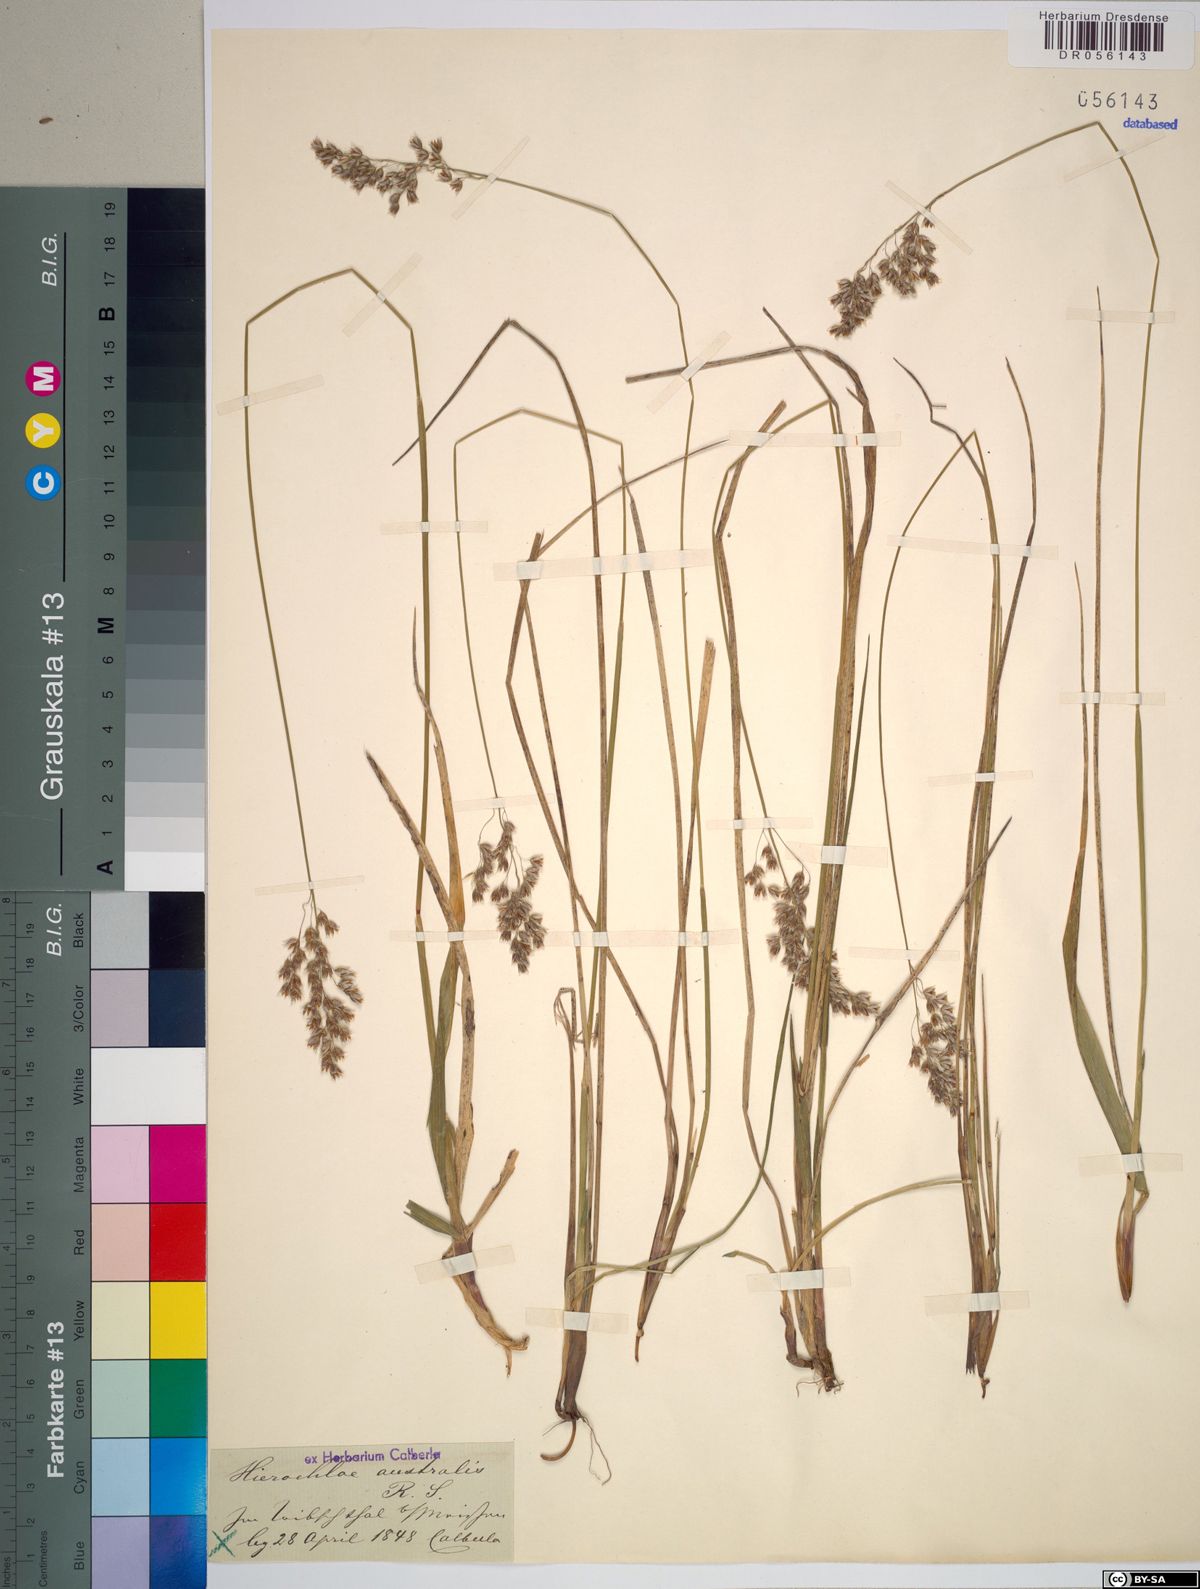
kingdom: Plantae
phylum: Tracheophyta
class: Liliopsida
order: Poales
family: Poaceae
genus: Anthoxanthum
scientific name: Anthoxanthum australe
